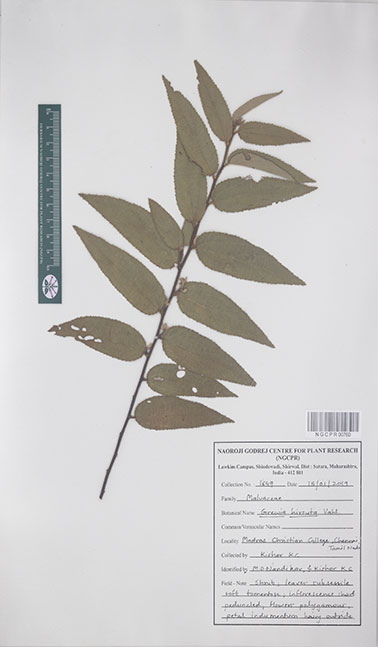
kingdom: Plantae
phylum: Tracheophyta
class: Magnoliopsida
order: Malvales
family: Malvaceae
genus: Grewia
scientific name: Grewia hirsuta
